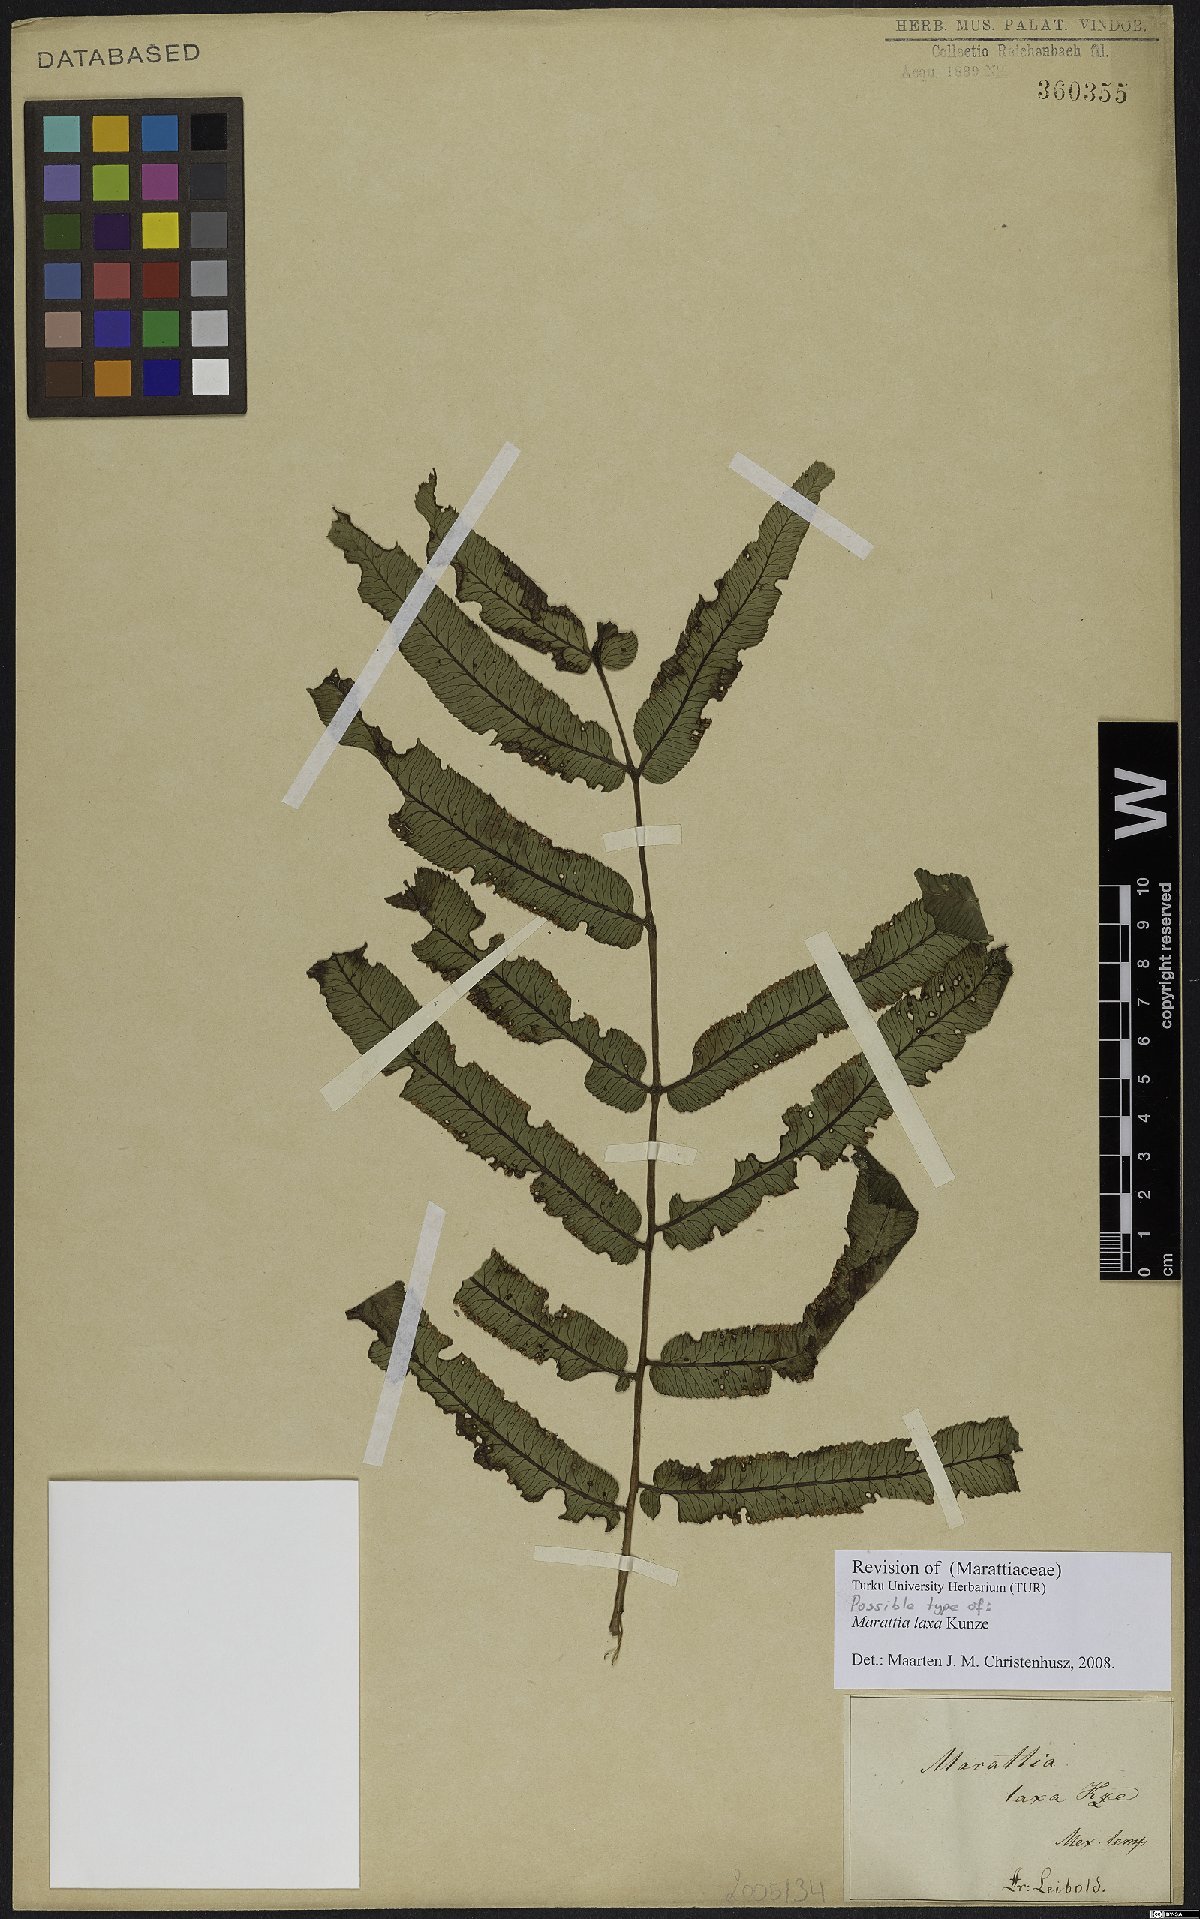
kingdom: Plantae
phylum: Tracheophyta
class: Polypodiopsida
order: Marattiales
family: Marattiaceae
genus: Marattia
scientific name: Marattia laxa
